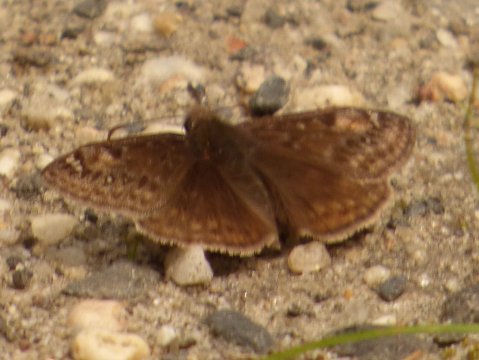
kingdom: Animalia
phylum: Arthropoda
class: Insecta
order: Lepidoptera
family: Hesperiidae
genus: Gesta
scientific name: Gesta
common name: Juvenal's Duskywing
